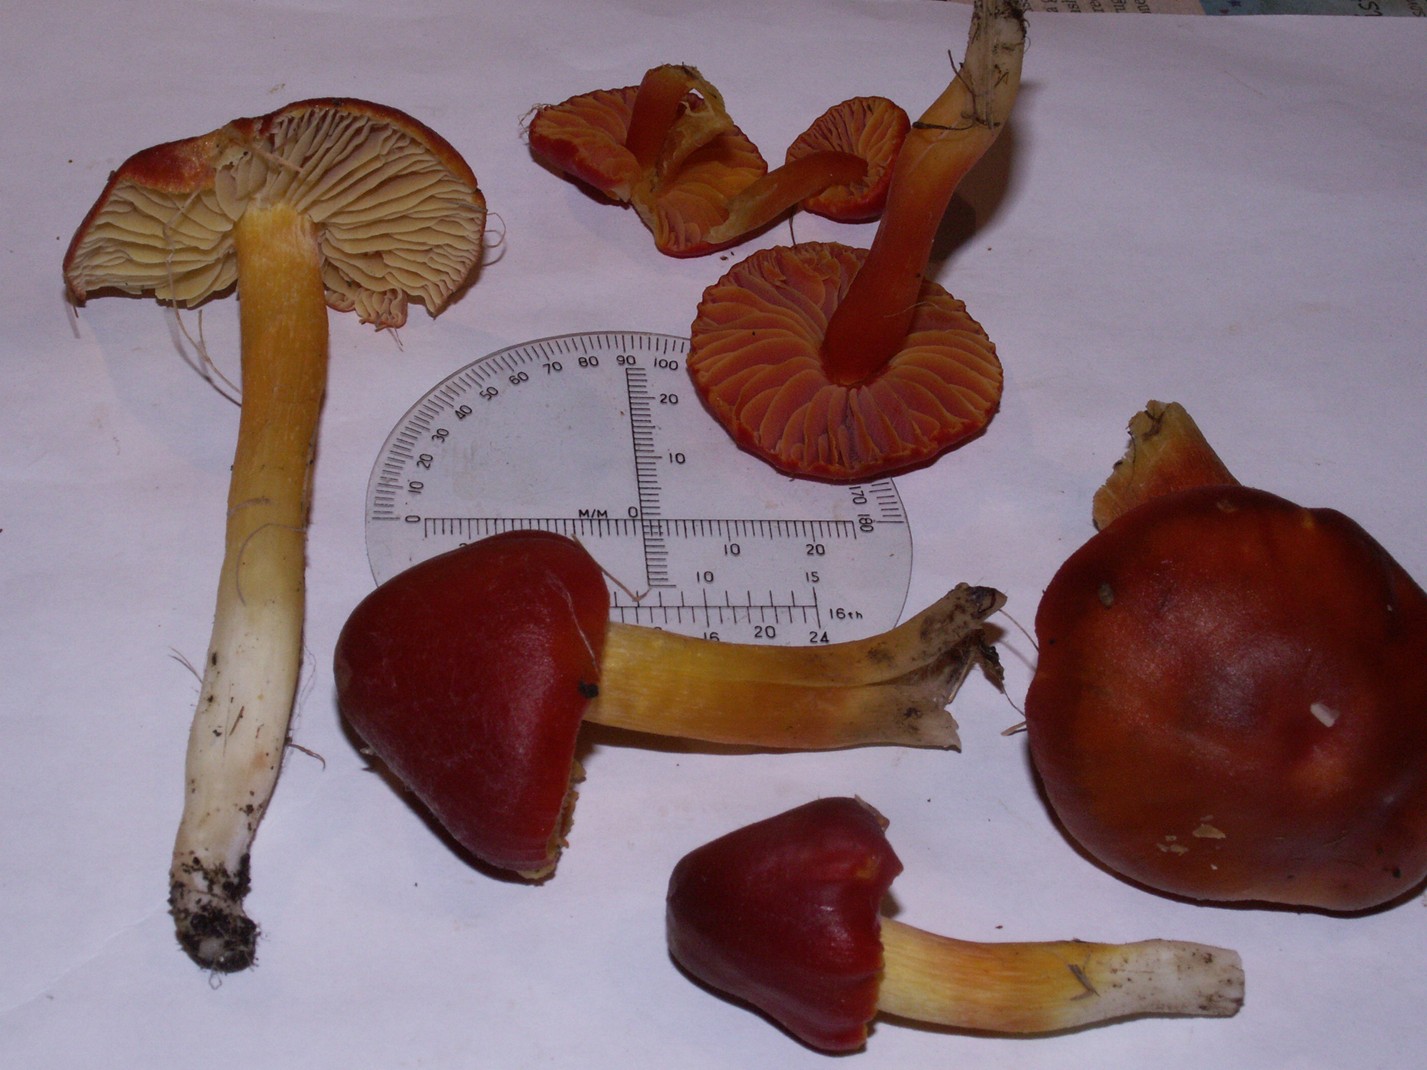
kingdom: Fungi
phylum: Basidiomycota
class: Agaricomycetes
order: Agaricales
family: Hygrophoraceae
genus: Hygrocybe
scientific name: Hygrocybe punicea
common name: skarlagen-vokshat
